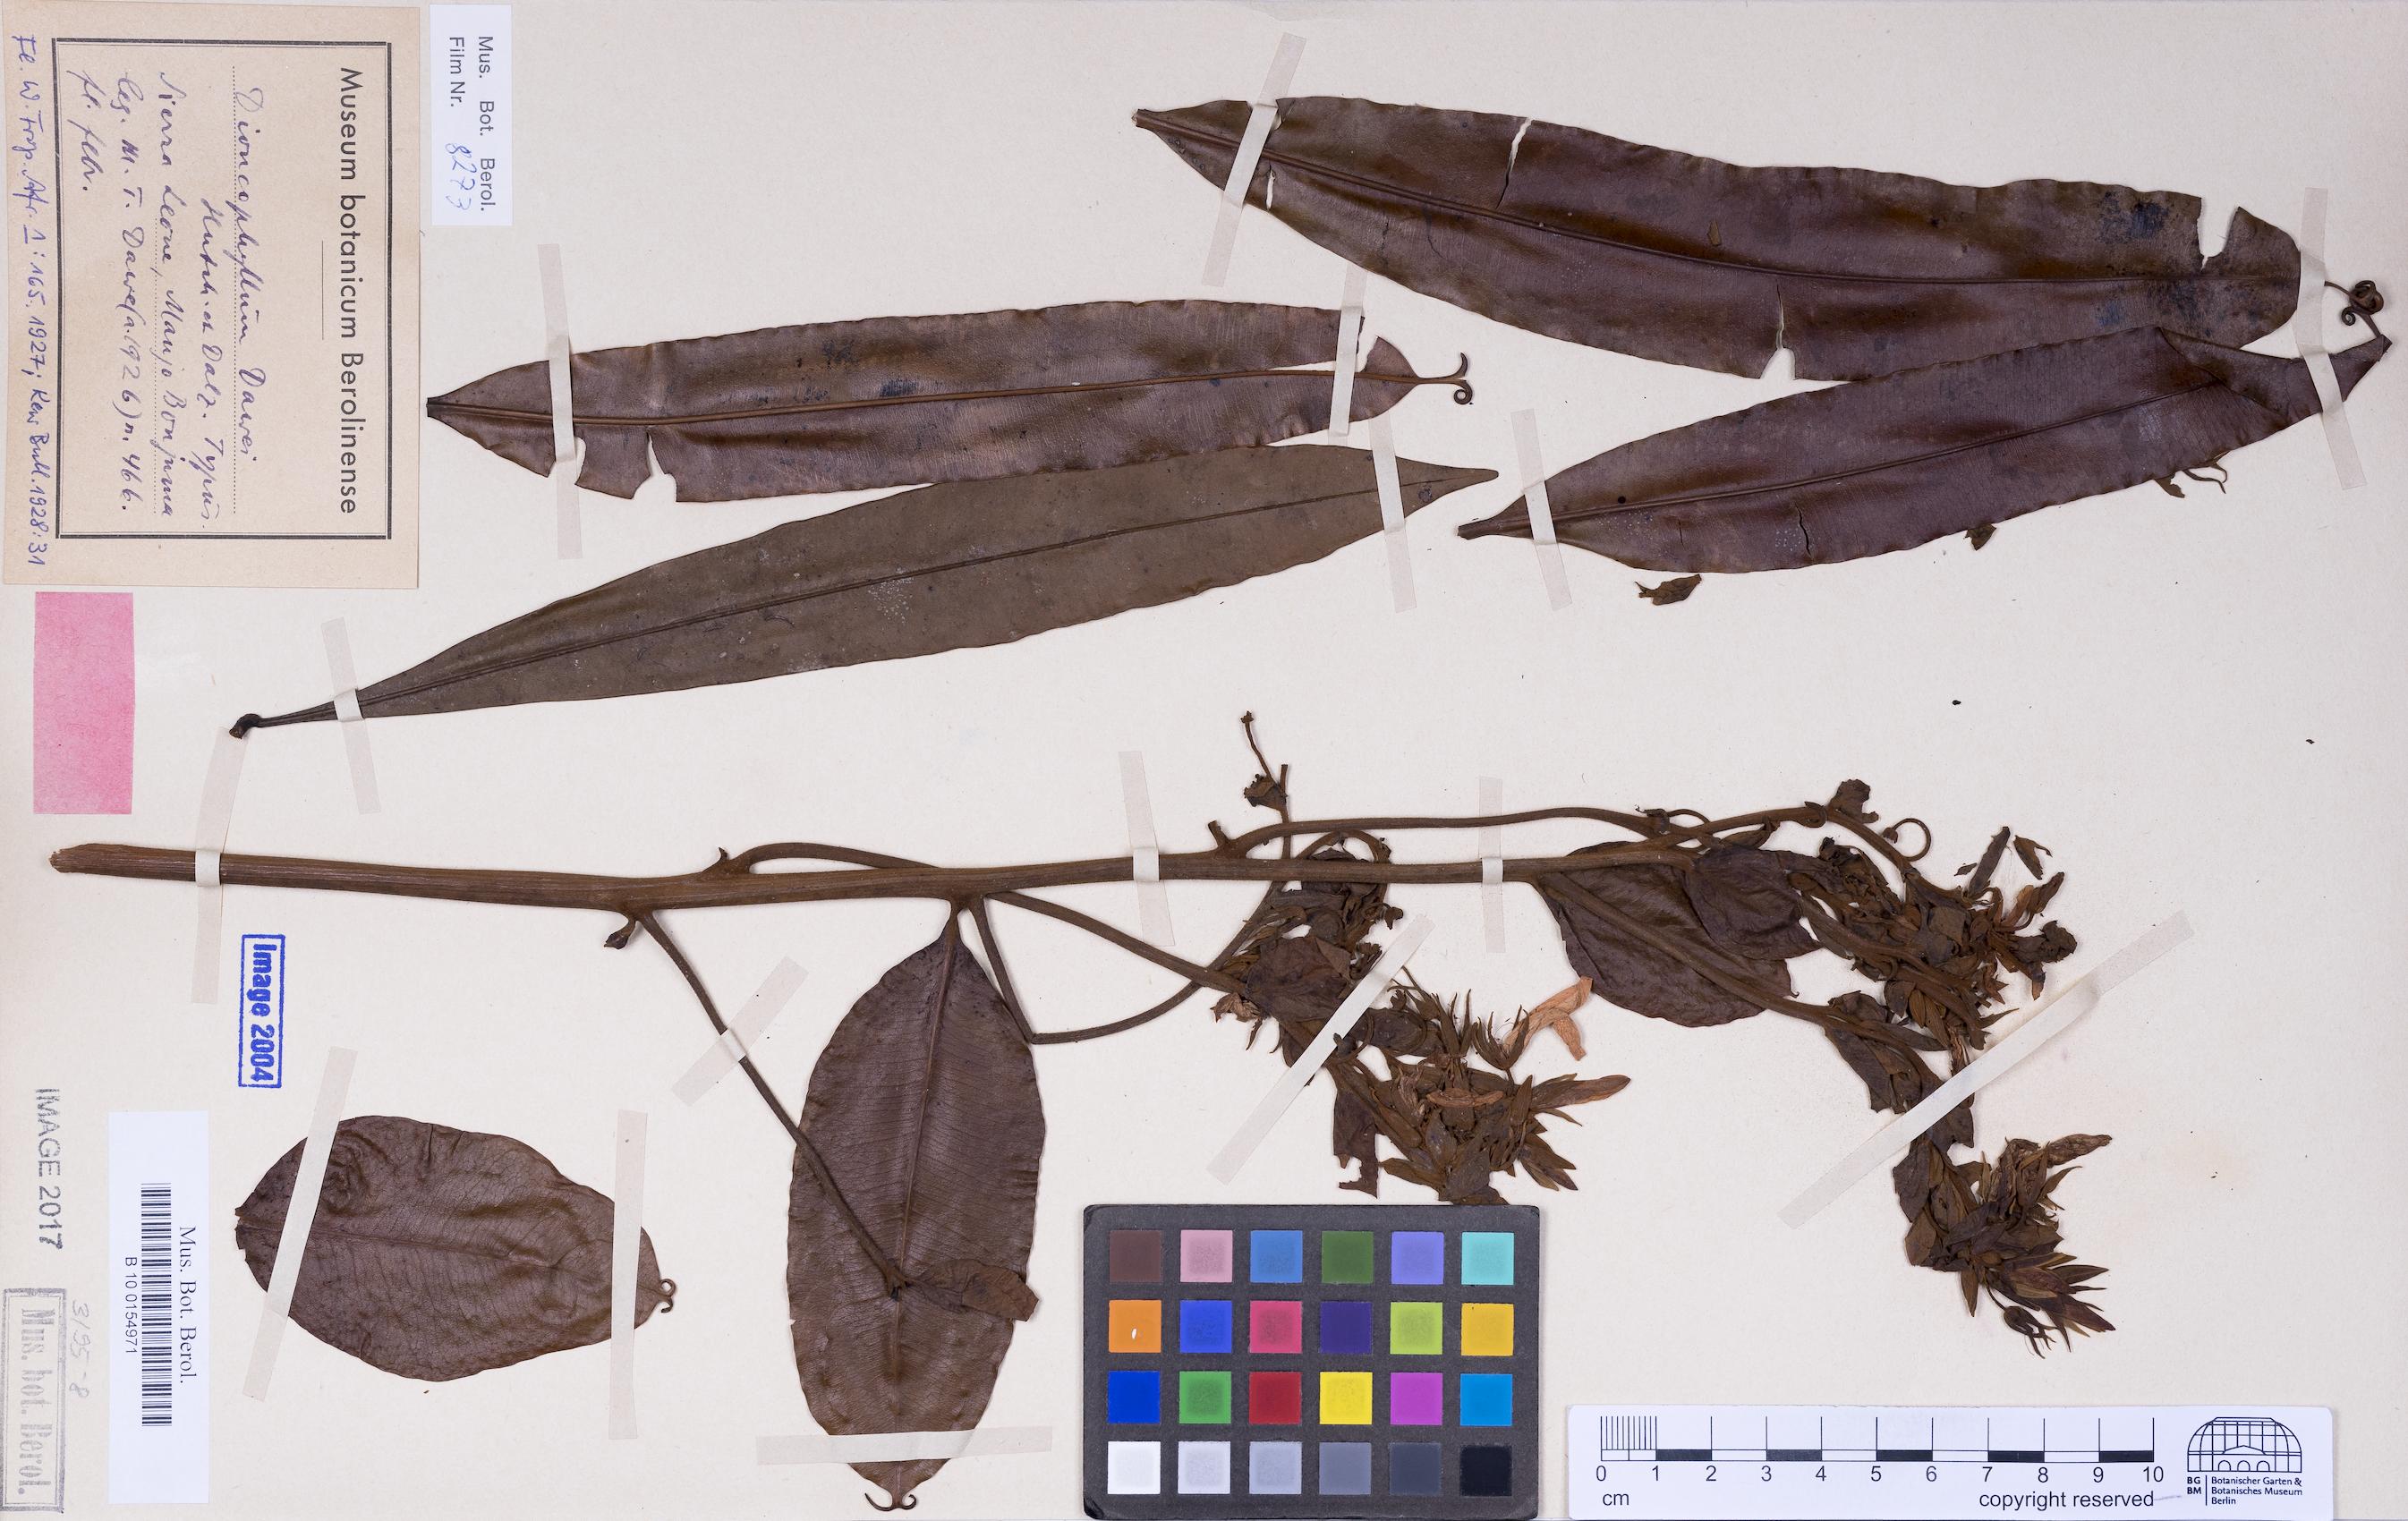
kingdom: Plantae
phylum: Tracheophyta
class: Magnoliopsida
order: Caryophyllales
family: Dioncophyllaceae
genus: Habropetalum
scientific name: Habropetalum dawei
